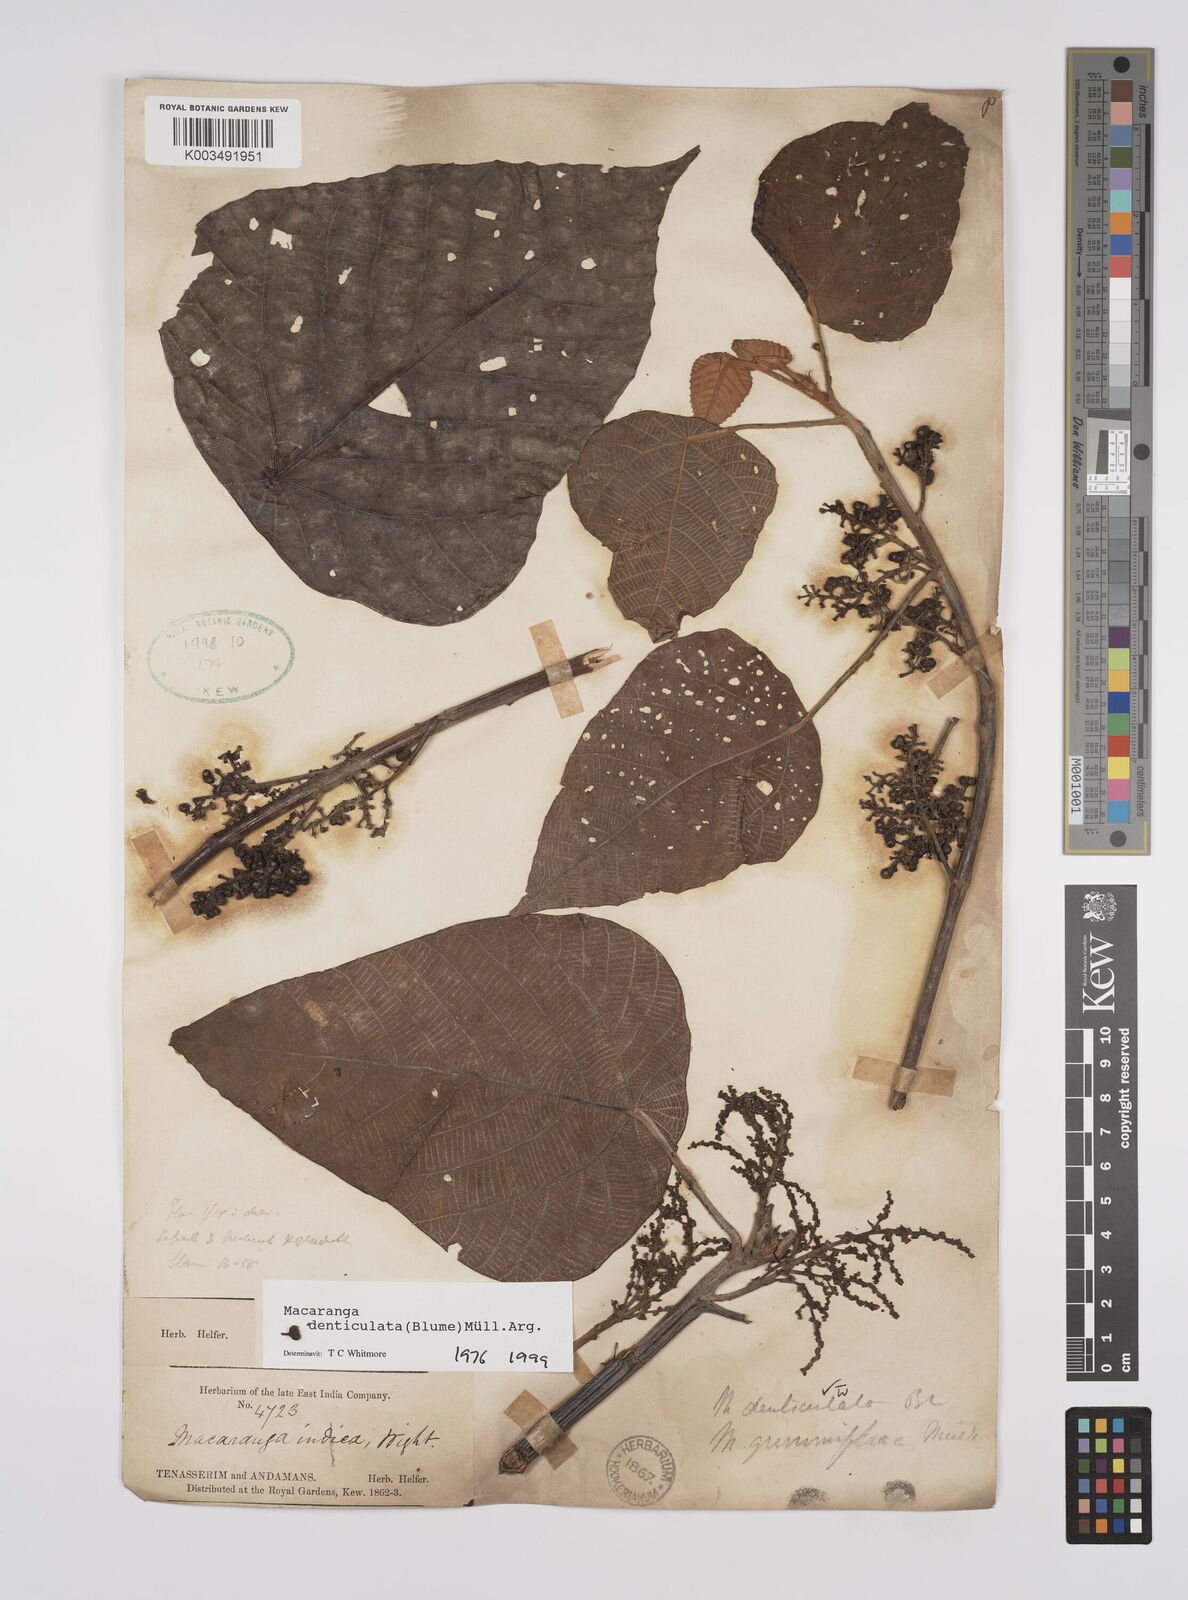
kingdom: Plantae
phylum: Tracheophyta
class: Magnoliopsida
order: Malpighiales
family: Euphorbiaceae
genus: Macaranga
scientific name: Macaranga denticulata
